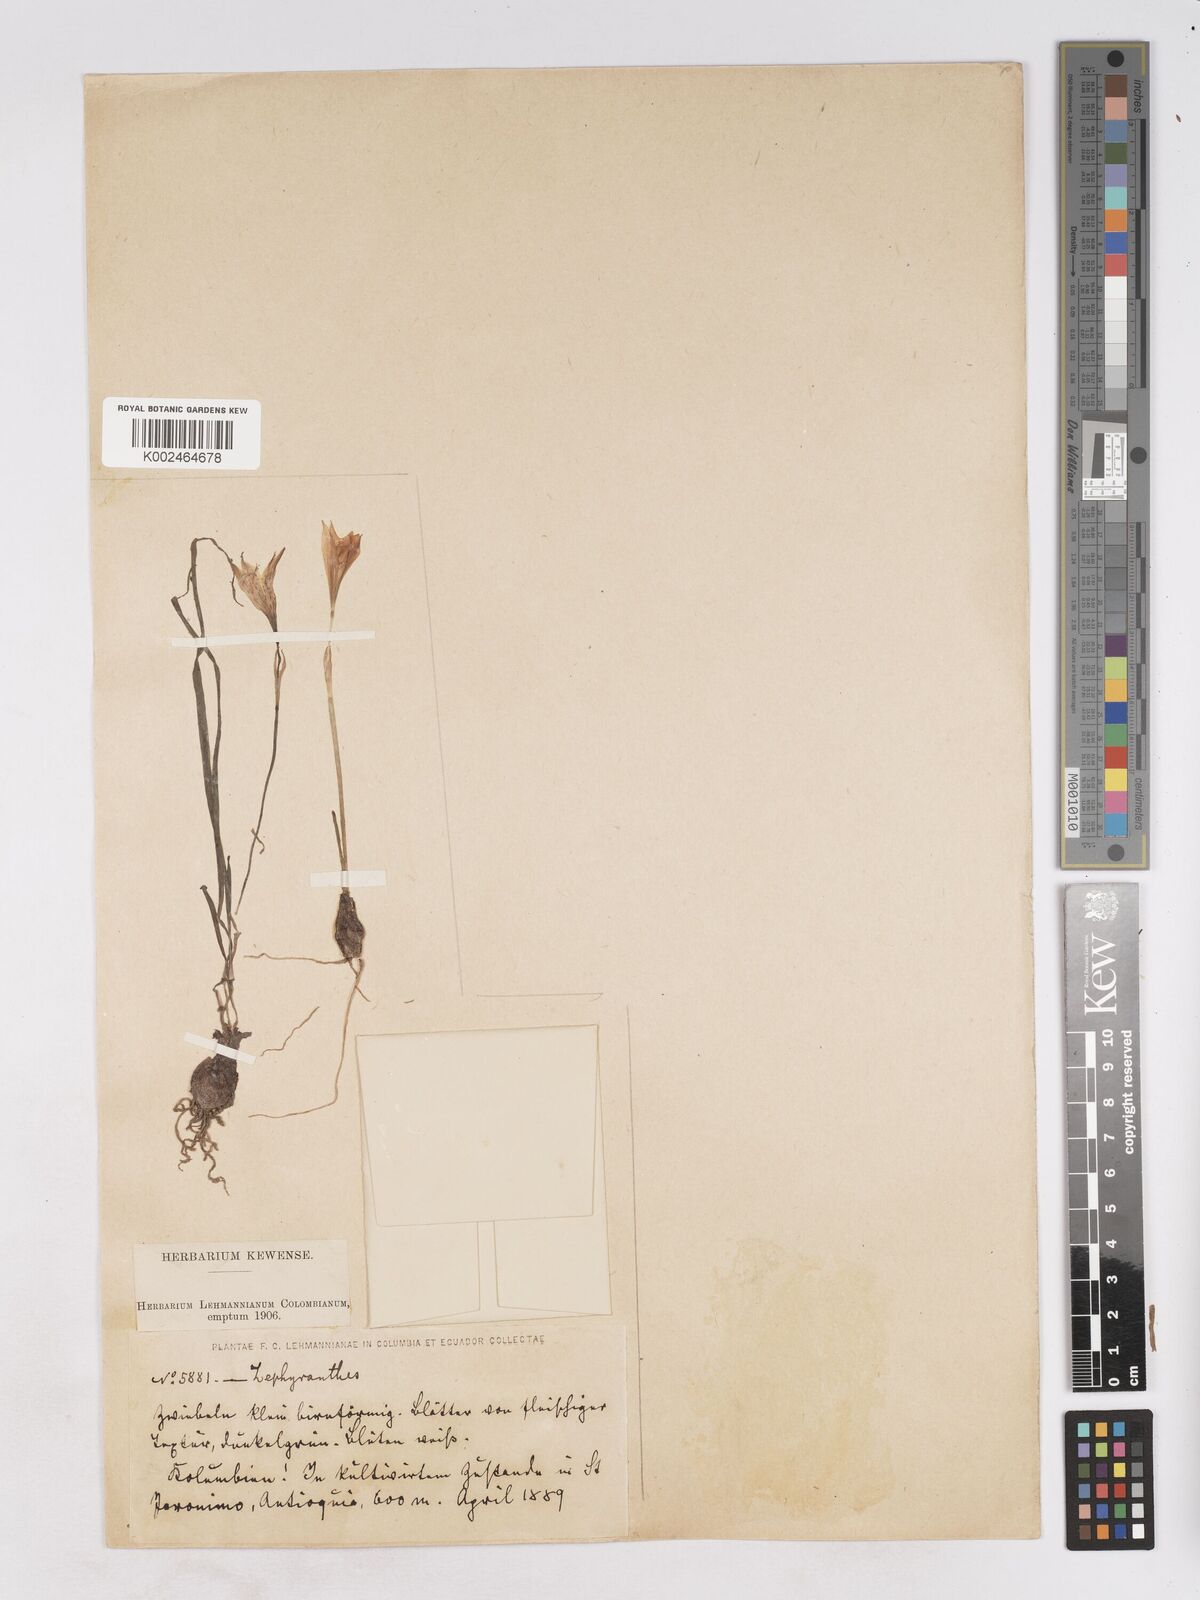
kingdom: Plantae
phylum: Tracheophyta
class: Liliopsida
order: Asparagales
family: Amaryllidaceae
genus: Zephyranthes
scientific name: Zephyranthes albiella
